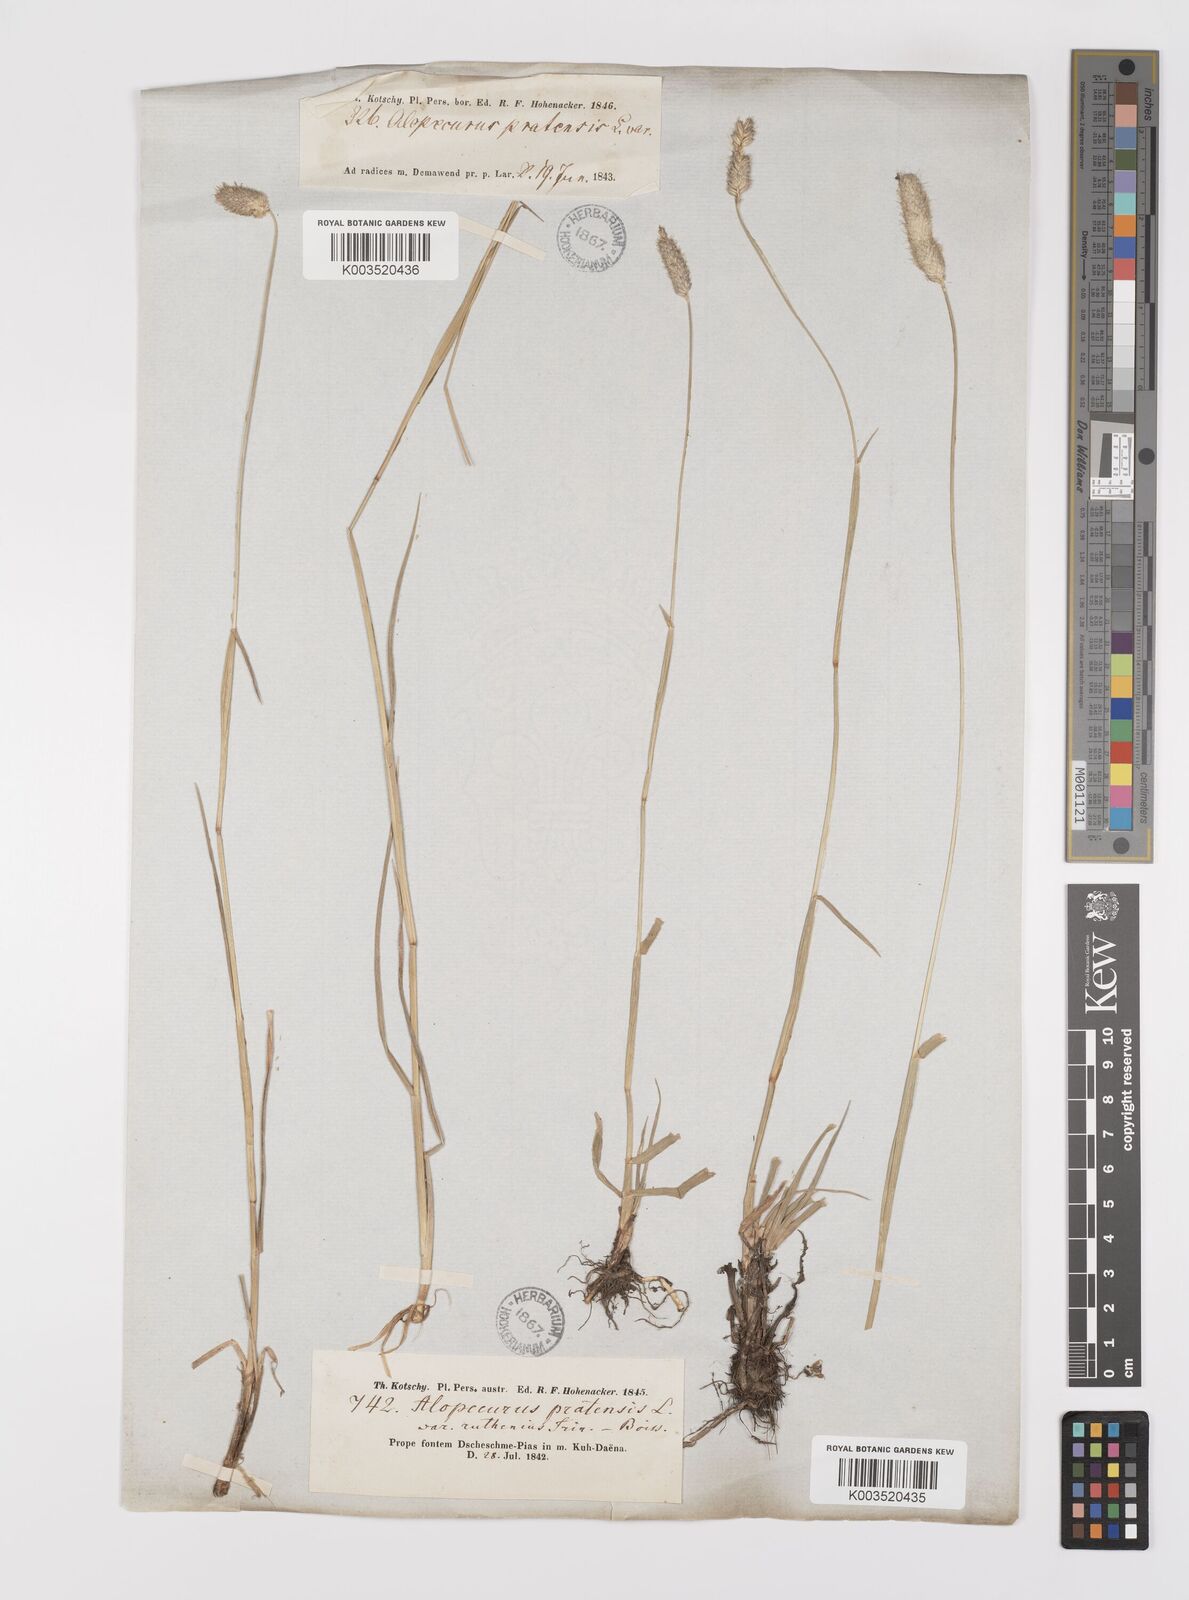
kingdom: Plantae
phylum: Tracheophyta
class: Liliopsida
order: Poales
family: Poaceae
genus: Alopecurus
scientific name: Alopecurus arundinaceus
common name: Creeping meadow foxtail
